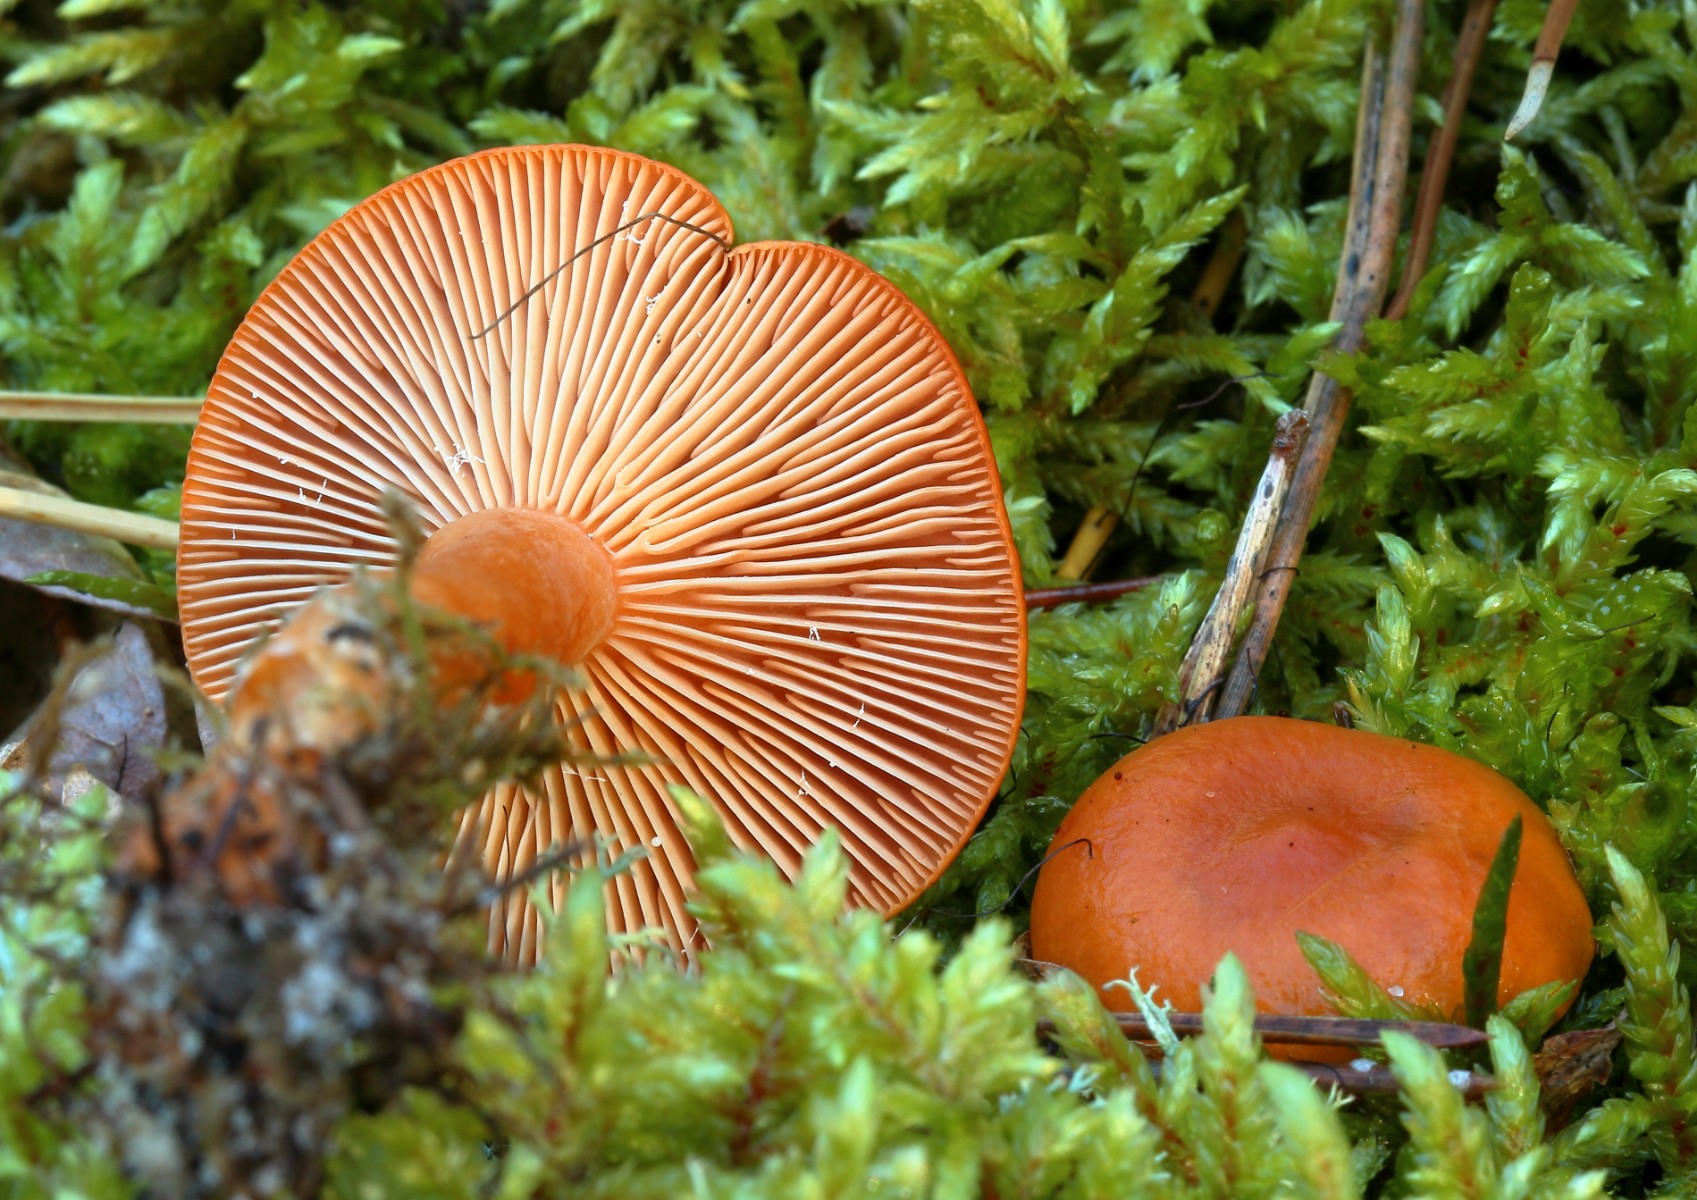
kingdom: Fungi
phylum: Basidiomycota
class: Agaricomycetes
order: Russulales
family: Russulaceae
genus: Lactarius
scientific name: Lactarius aurantiacus
